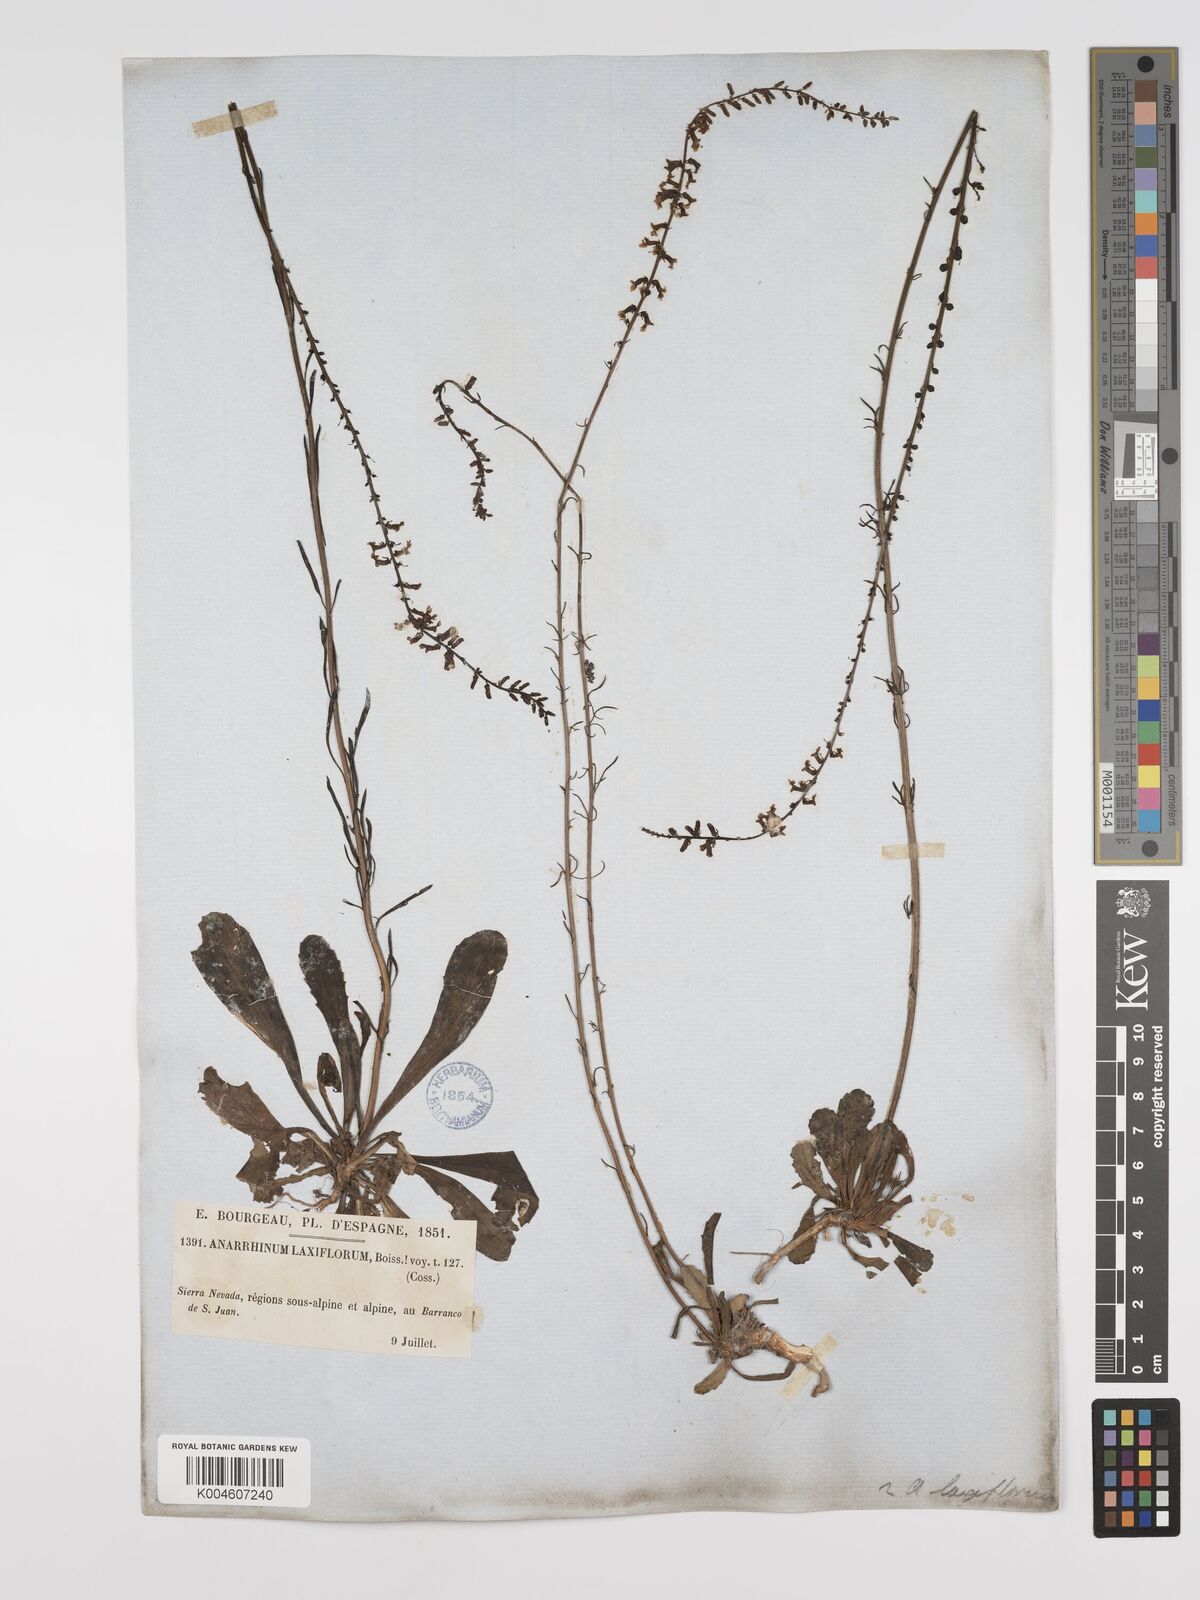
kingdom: Plantae
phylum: Tracheophyta
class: Magnoliopsida
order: Lamiales
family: Plantaginaceae
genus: Anarrhinum
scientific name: Anarrhinum laxiflorum
